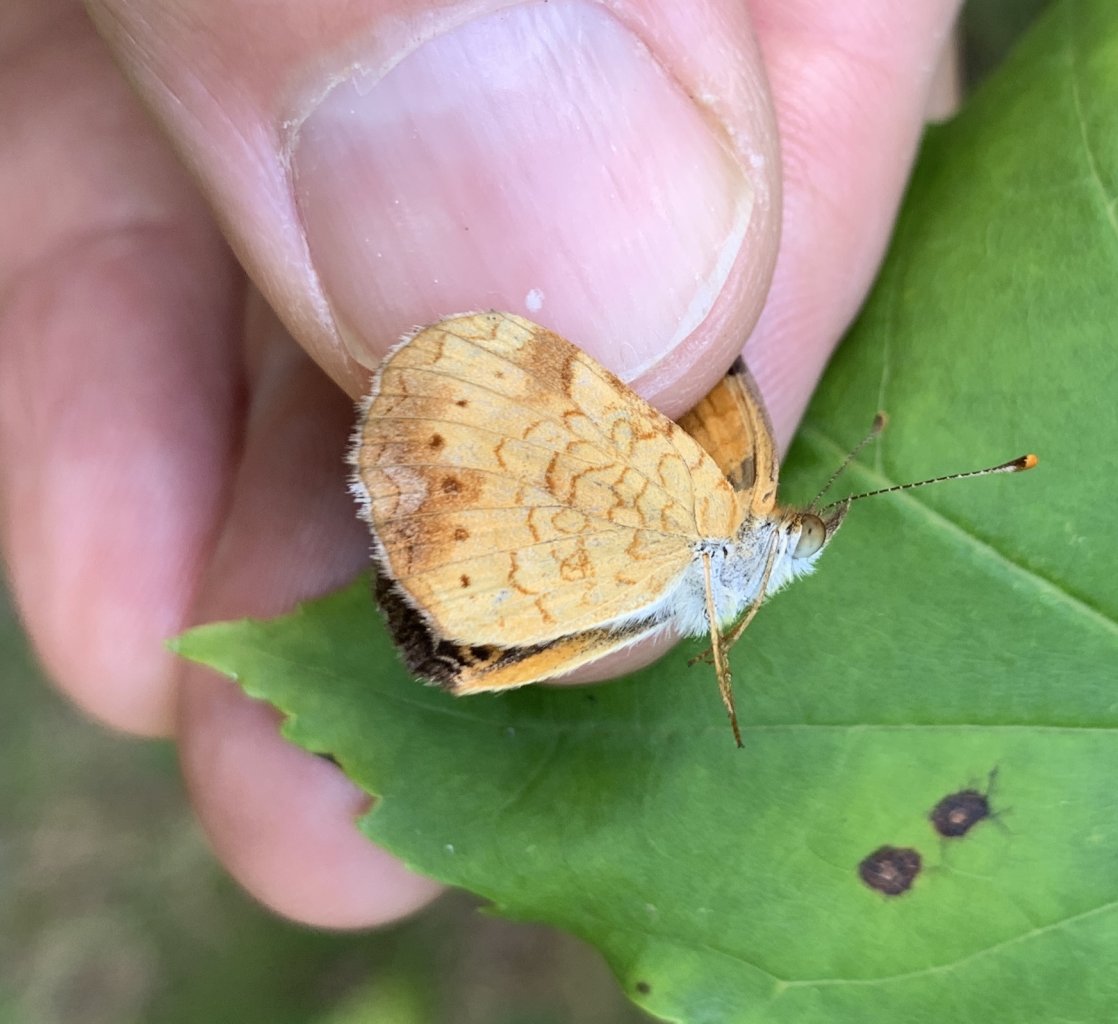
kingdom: Animalia
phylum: Arthropoda
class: Insecta
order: Lepidoptera
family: Nymphalidae
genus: Phyciodes
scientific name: Phyciodes tharos
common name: Northern Crescent
